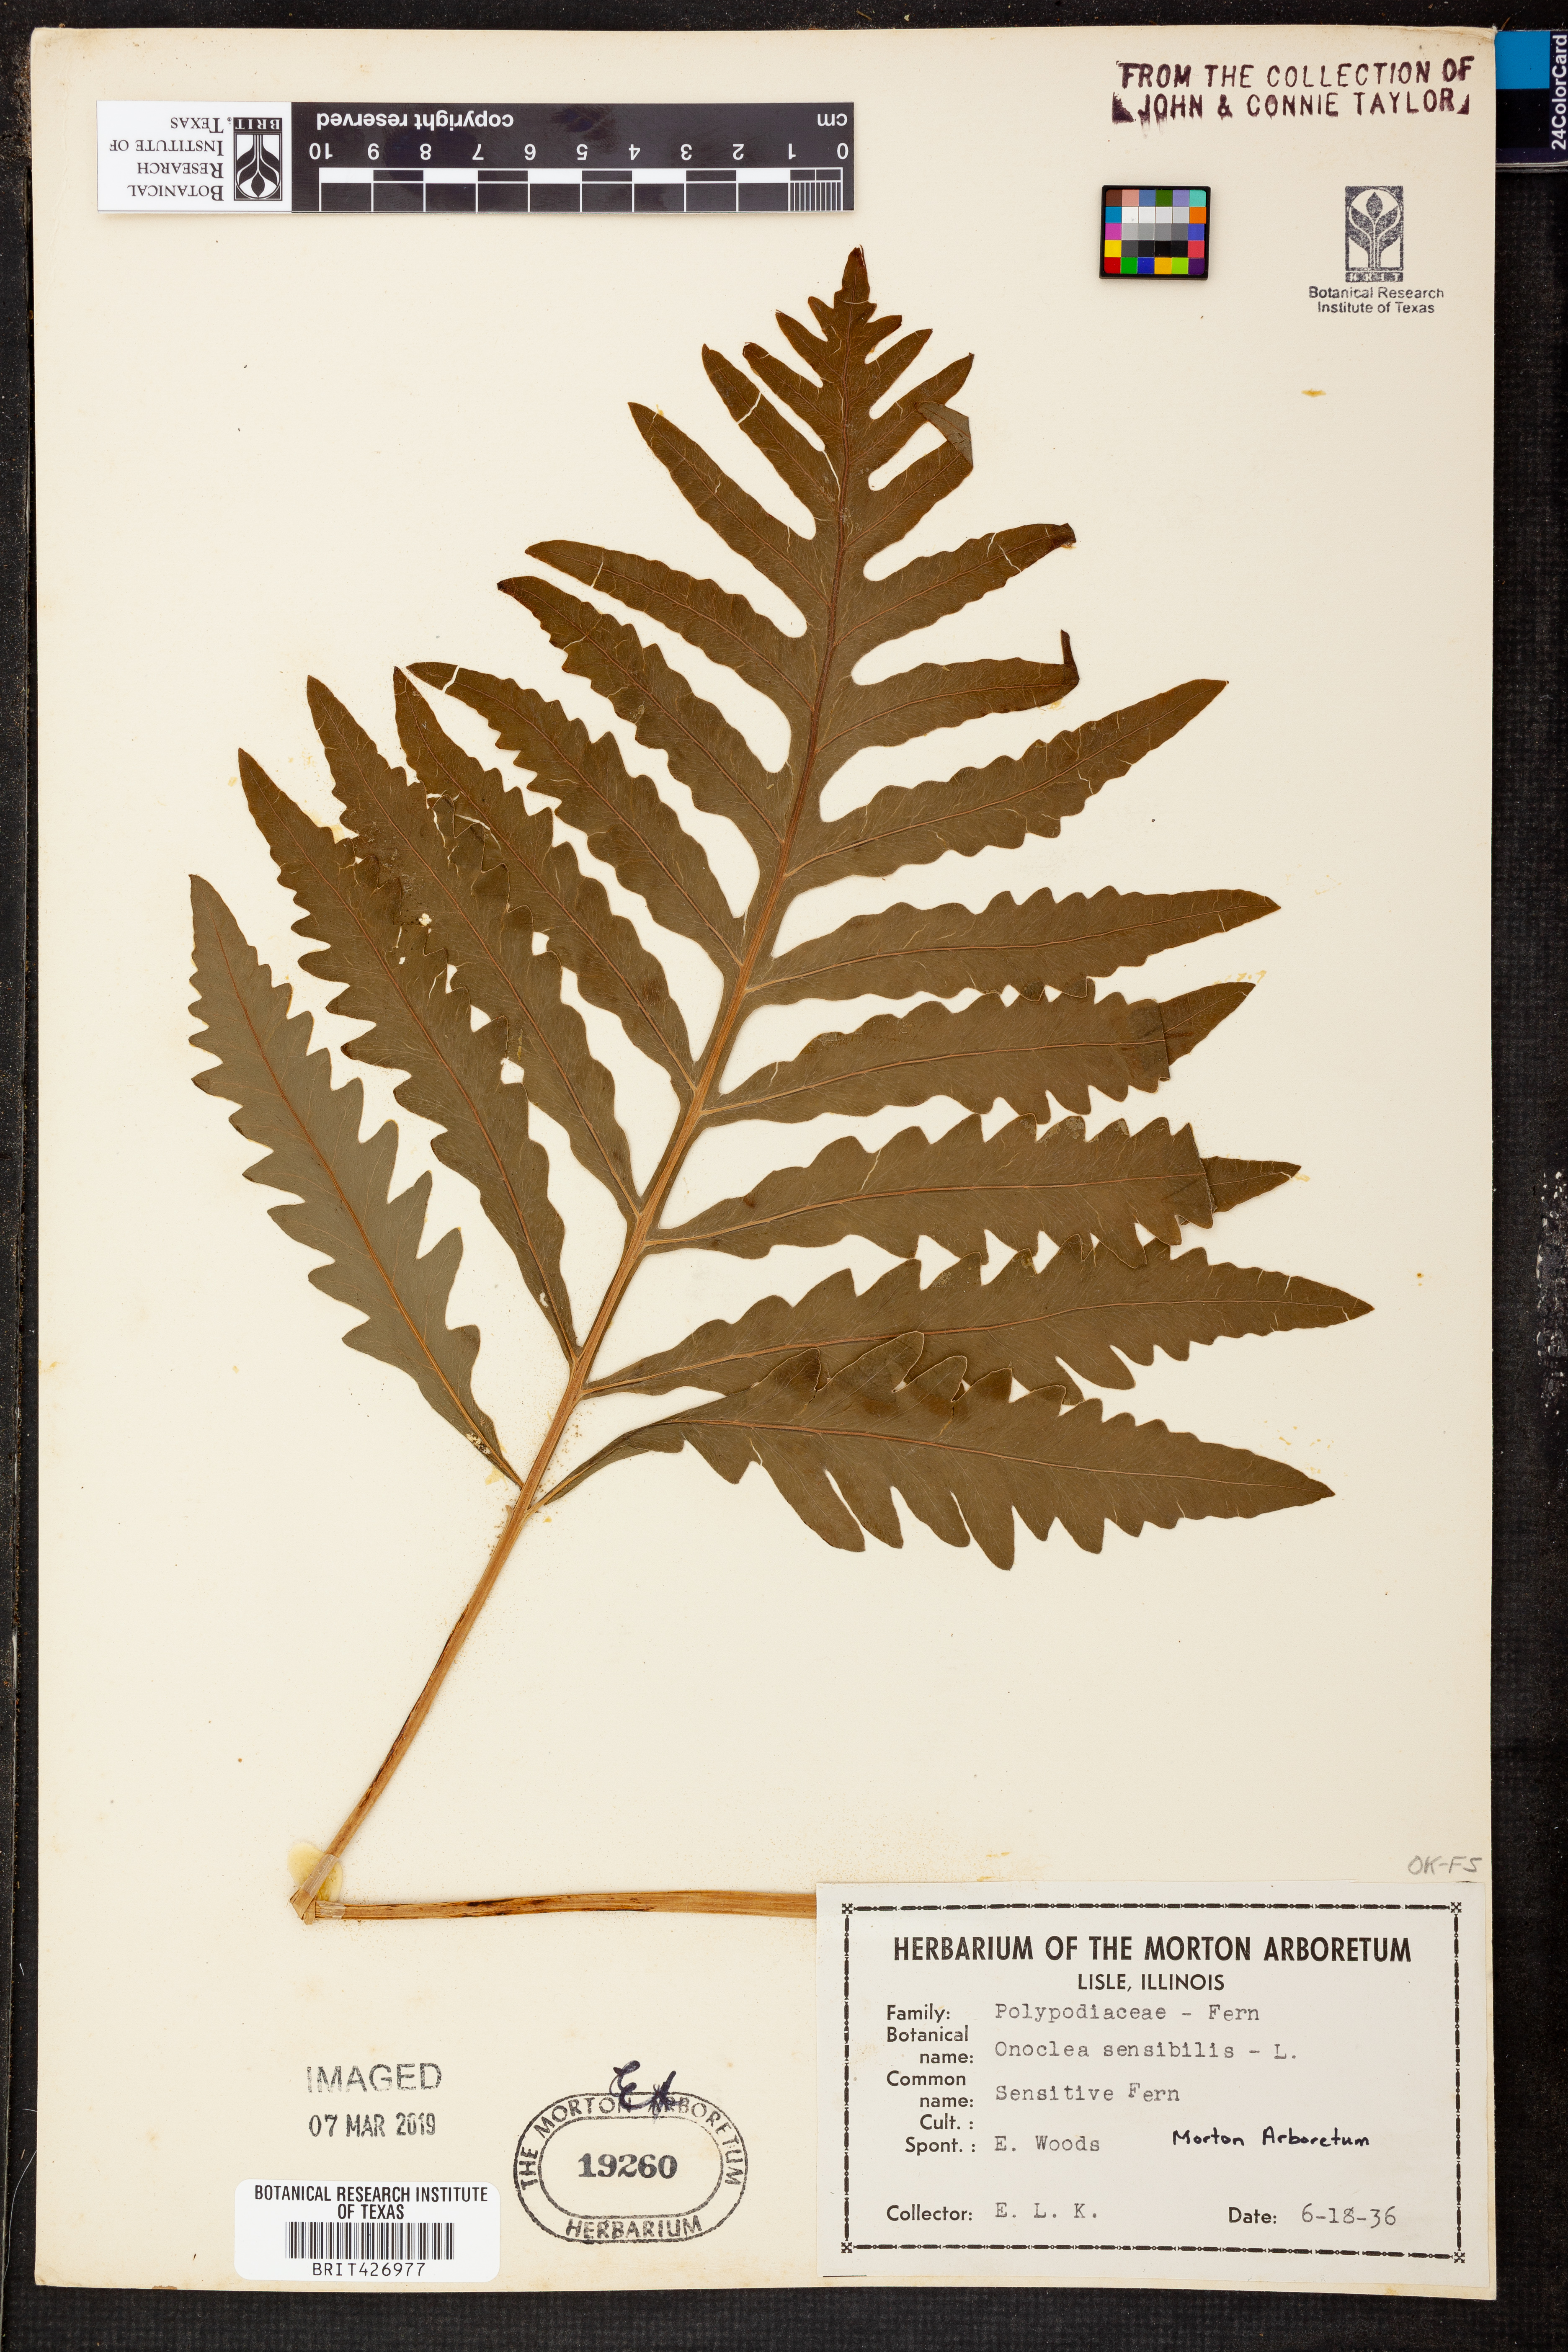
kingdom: Plantae
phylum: Tracheophyta
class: Polypodiopsida
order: Polypodiales
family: Onocleaceae
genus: Onoclea
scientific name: Onoclea sensibilis
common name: Sensitive fern
